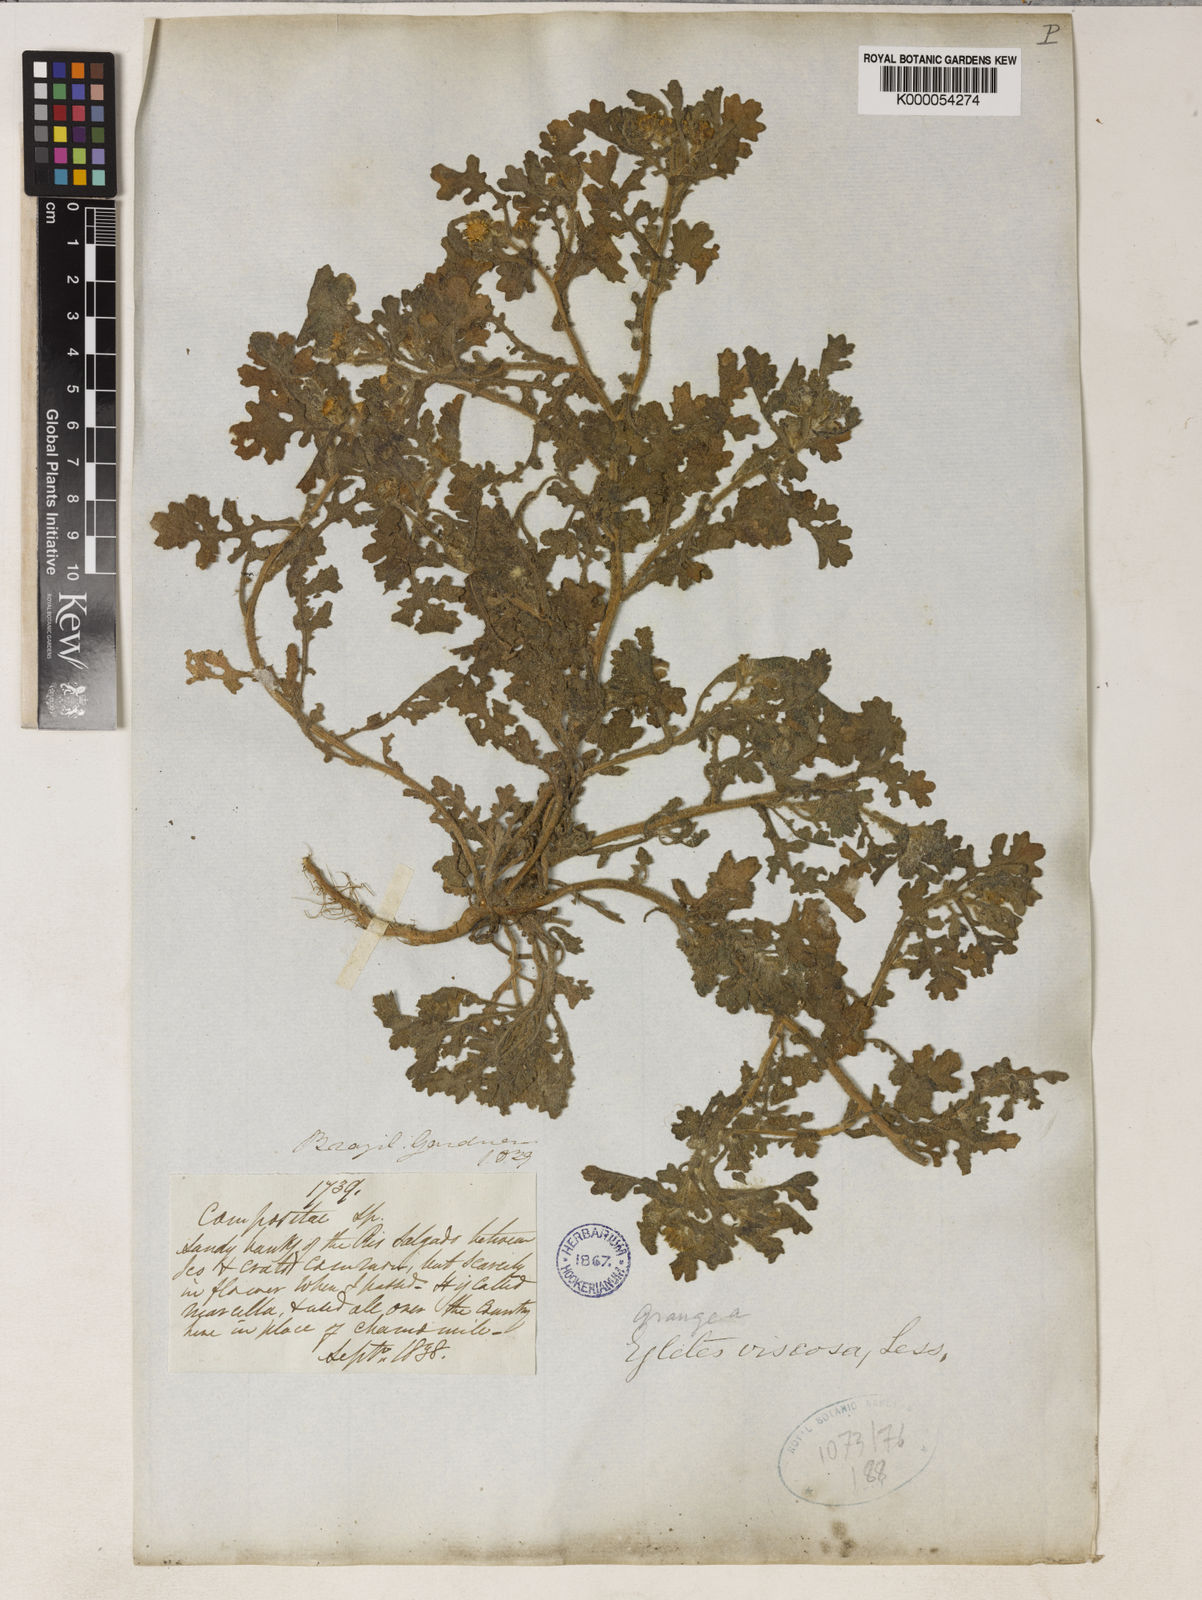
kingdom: Plantae
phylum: Tracheophyta
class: Magnoliopsida
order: Asterales
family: Asteraceae
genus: Egletes
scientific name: Egletes viscosa
